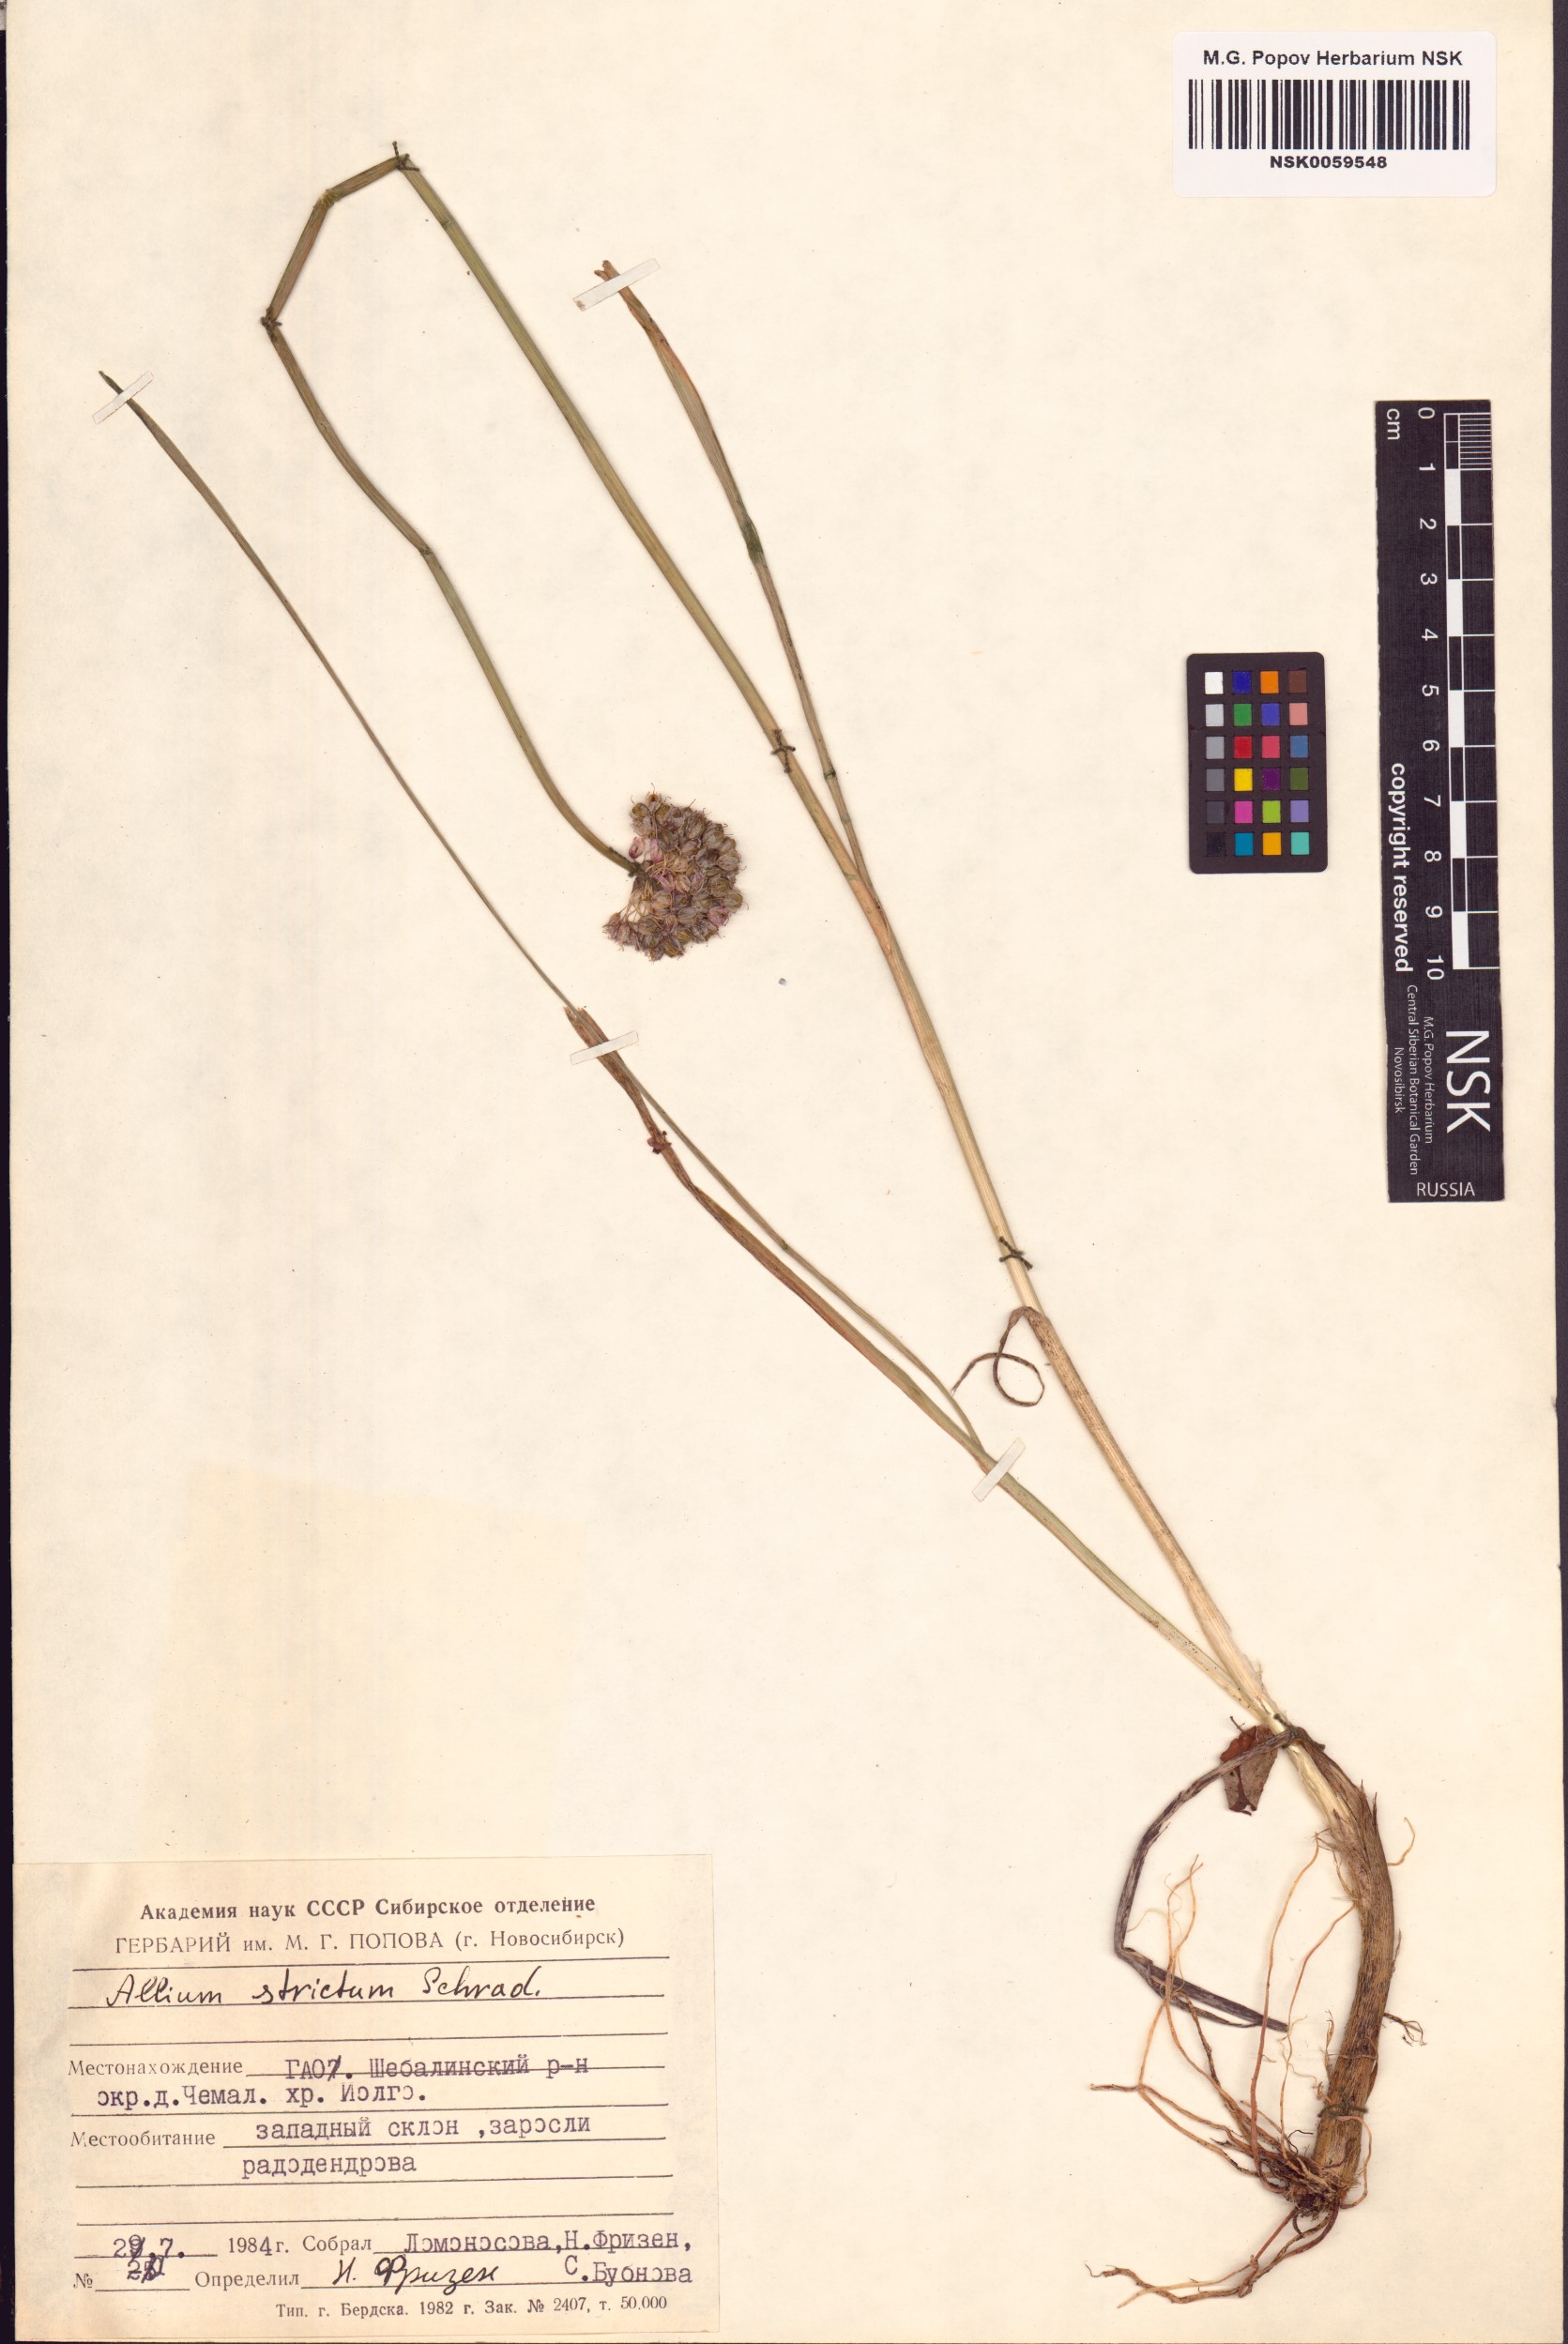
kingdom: Plantae
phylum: Tracheophyta
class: Liliopsida
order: Asparagales
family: Amaryllidaceae
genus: Allium
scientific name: Allium strictum
